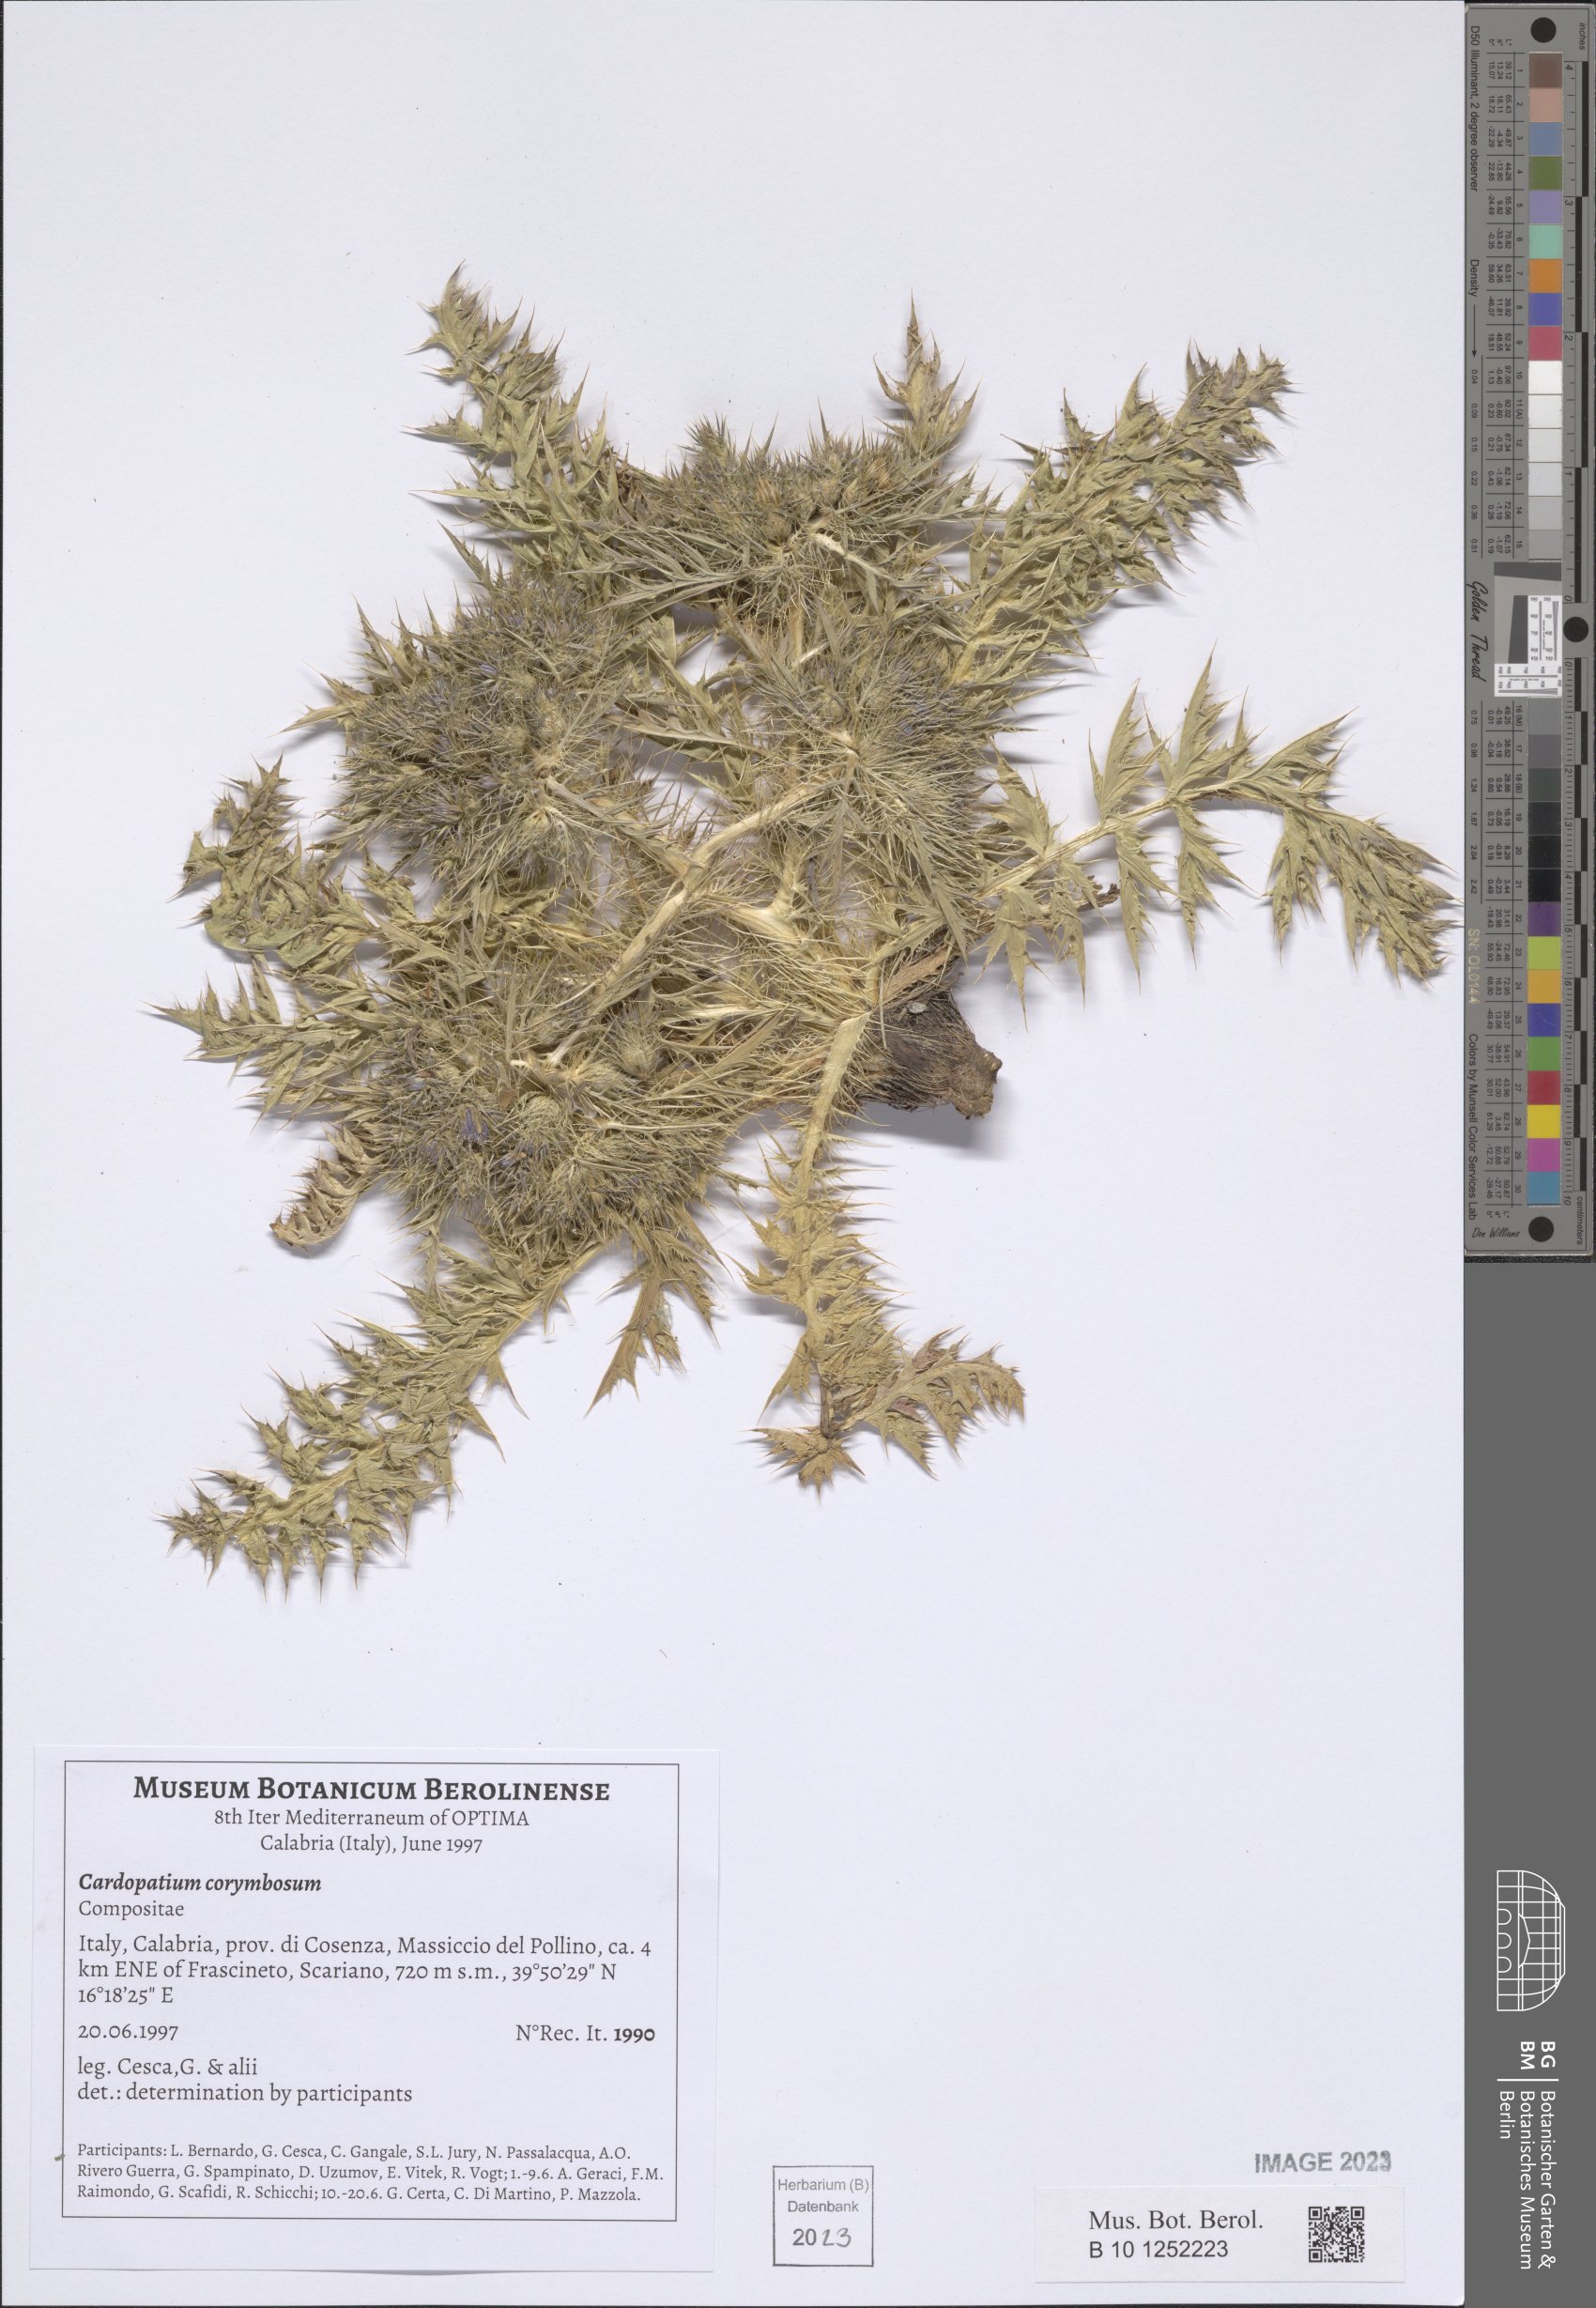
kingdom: Plantae
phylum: Tracheophyta
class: Magnoliopsida
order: Asterales
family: Asteraceae
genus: Cardopatium
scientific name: Cardopatium corymbosum
